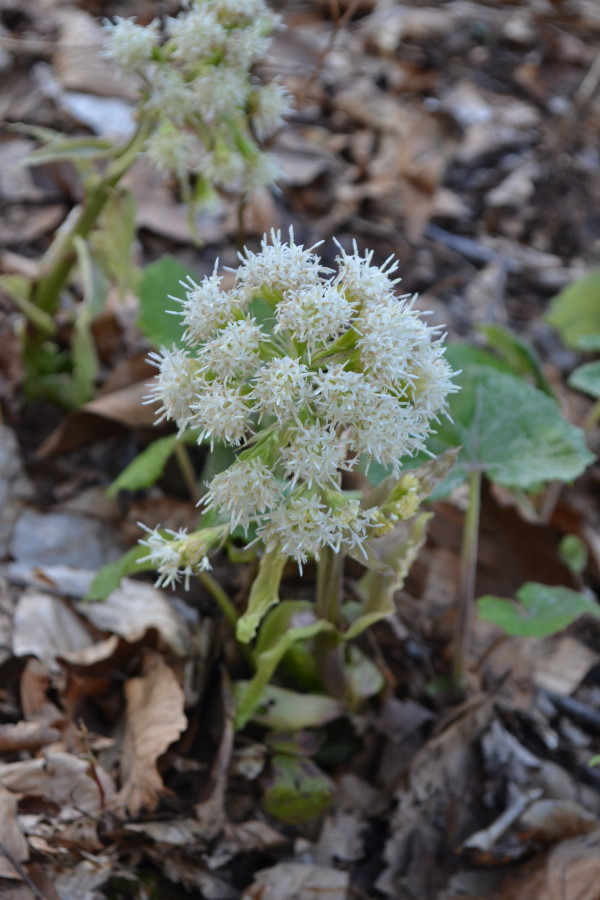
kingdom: Plantae
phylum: Tracheophyta
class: Magnoliopsida
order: Asterales
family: Asteraceae
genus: Petasites
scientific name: Petasites
